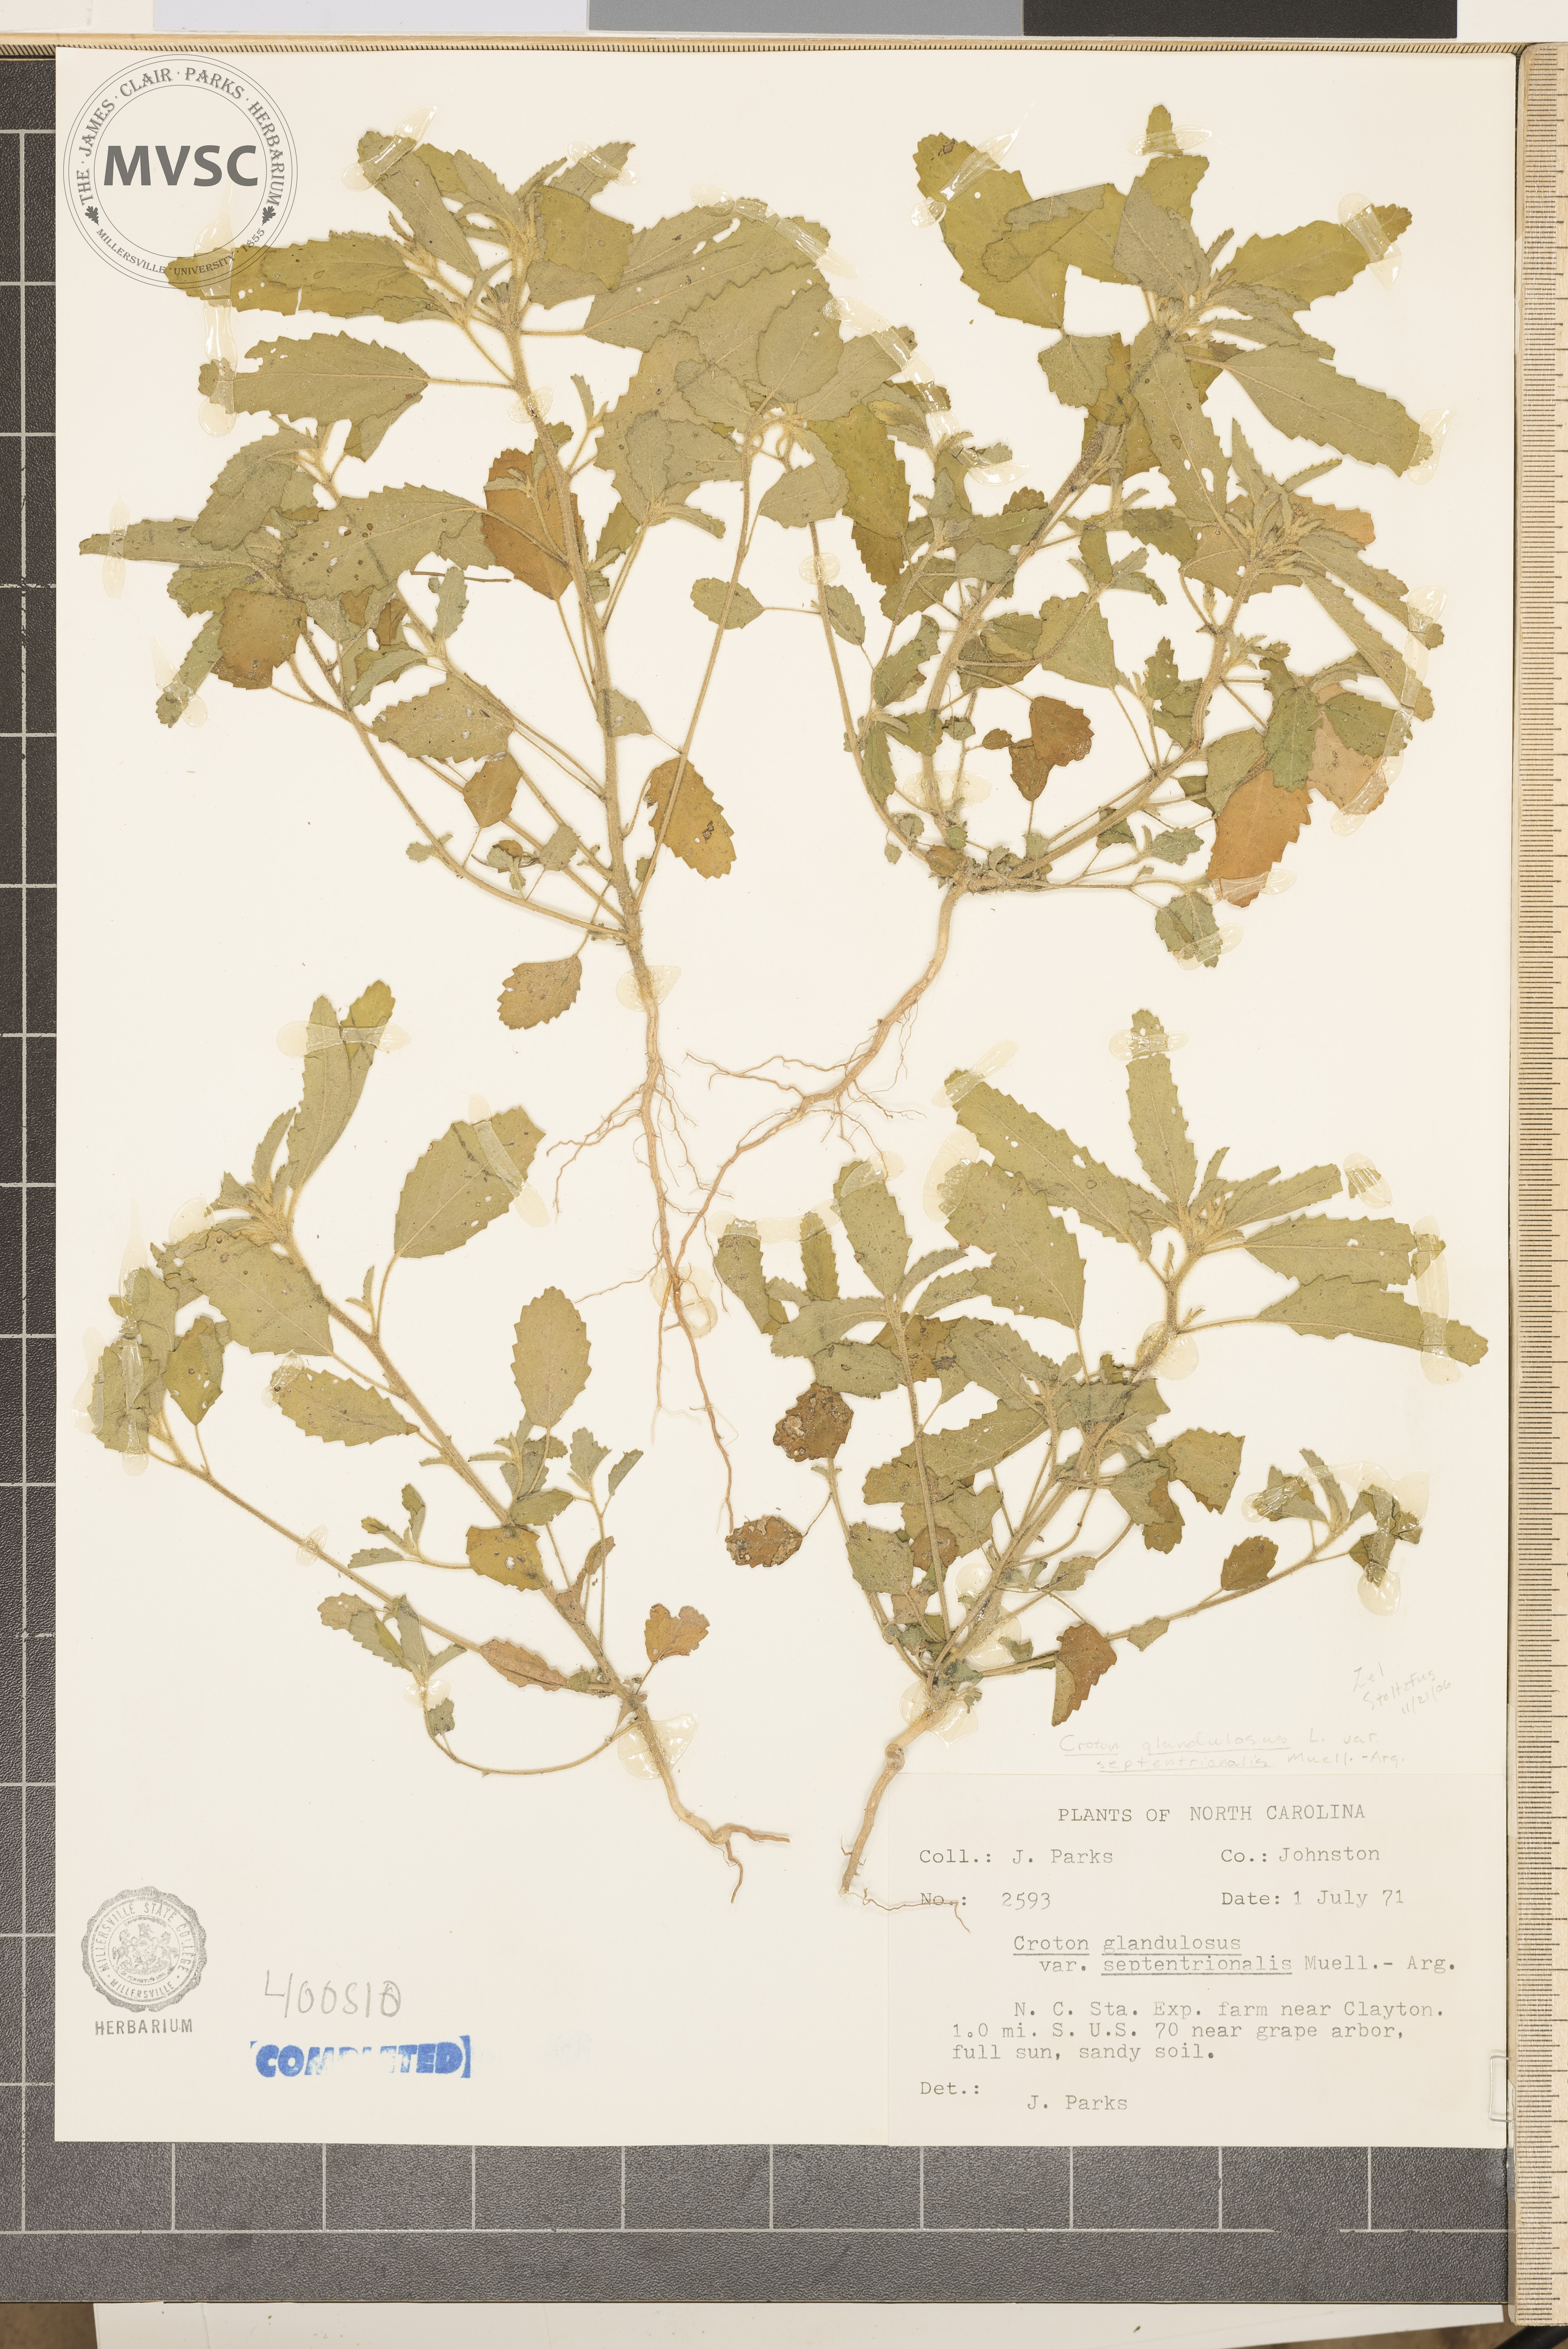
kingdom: Plantae
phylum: Tracheophyta
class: Magnoliopsida
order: Malpighiales
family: Euphorbiaceae
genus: Croton
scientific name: Croton glandulosus
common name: vente conmigo
